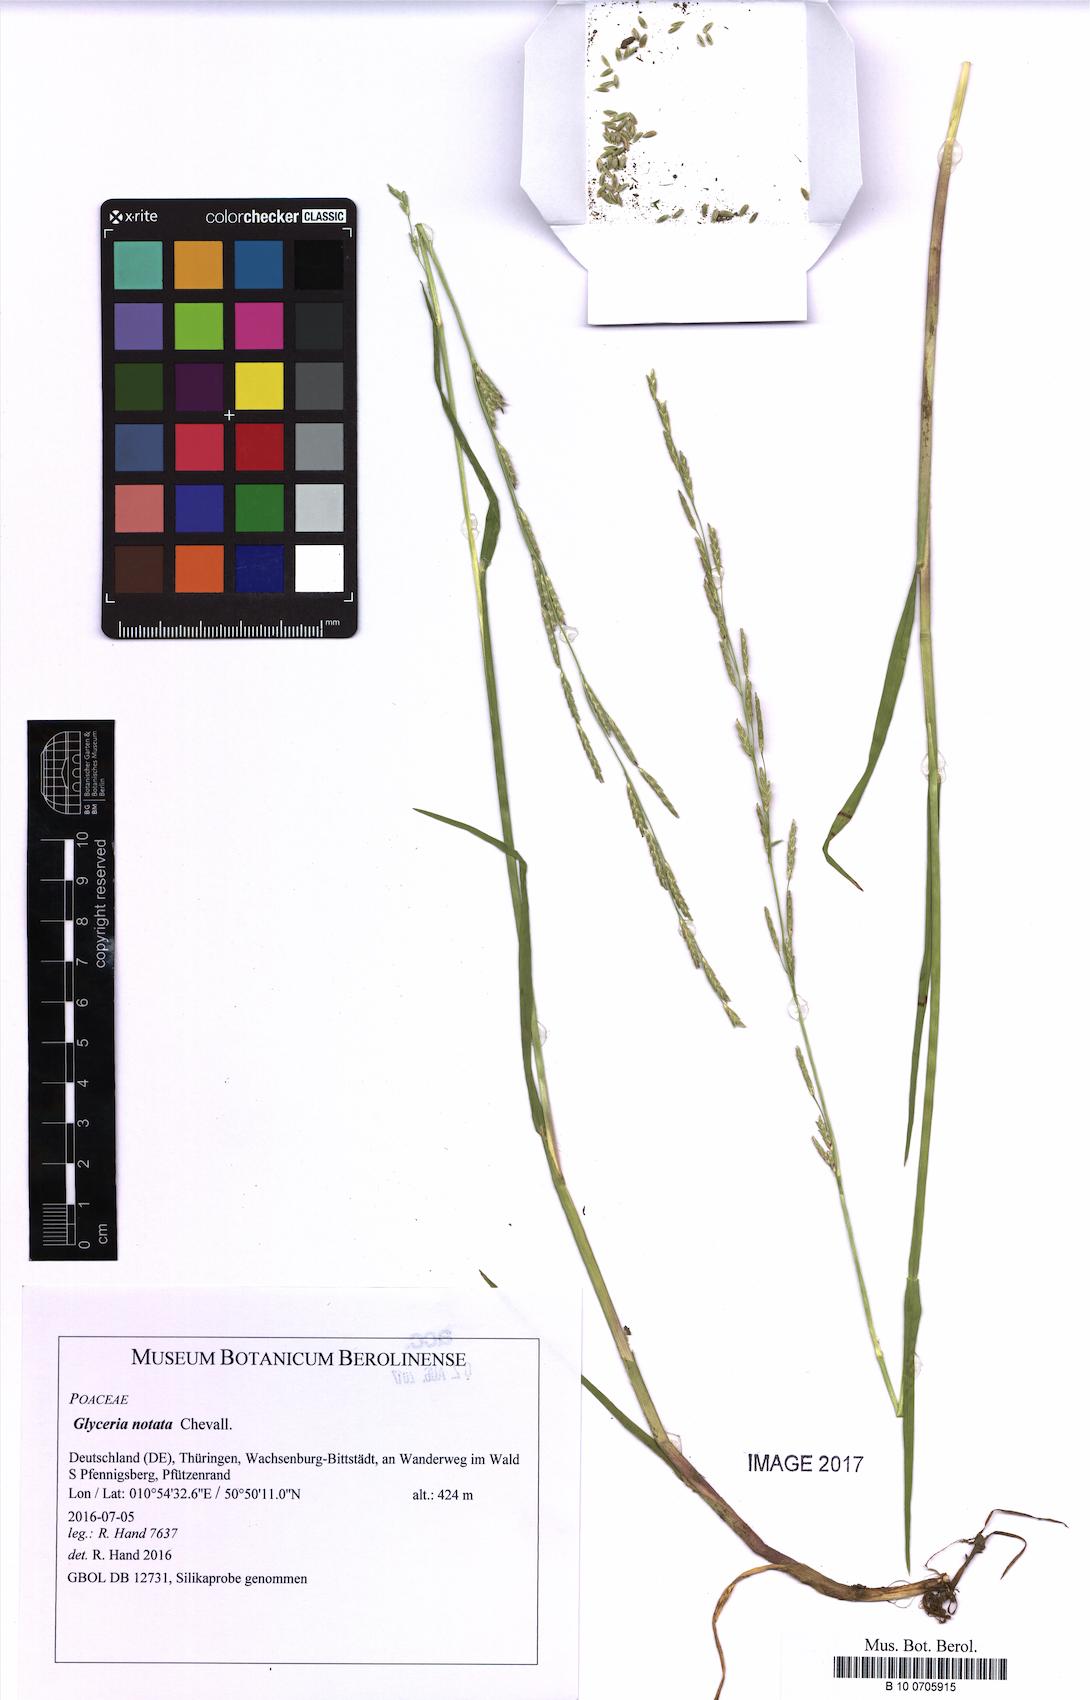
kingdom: Plantae
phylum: Tracheophyta
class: Liliopsida
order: Poales
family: Poaceae
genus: Glyceria
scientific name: Glyceria notata
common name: Plicate sweet-grass
